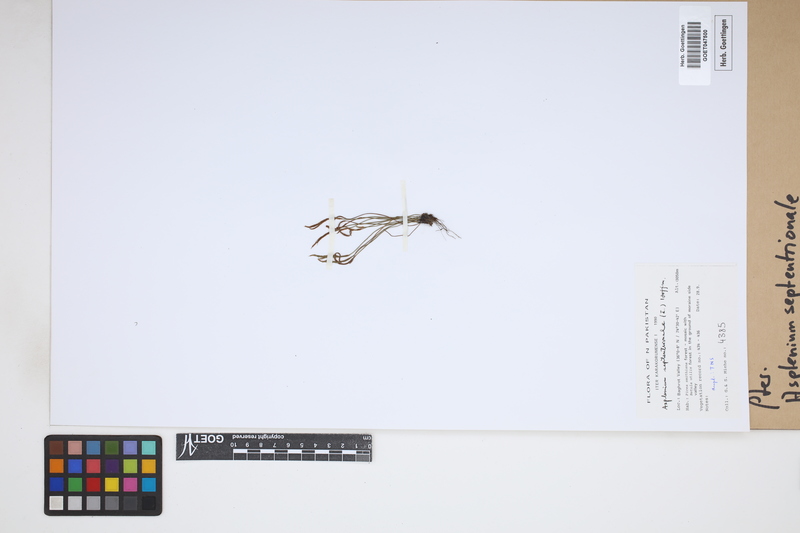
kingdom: Plantae
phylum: Tracheophyta
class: Polypodiopsida
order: Polypodiales
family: Aspleniaceae
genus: Asplenium
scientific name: Asplenium septentrionale
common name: Forked spleenwort
